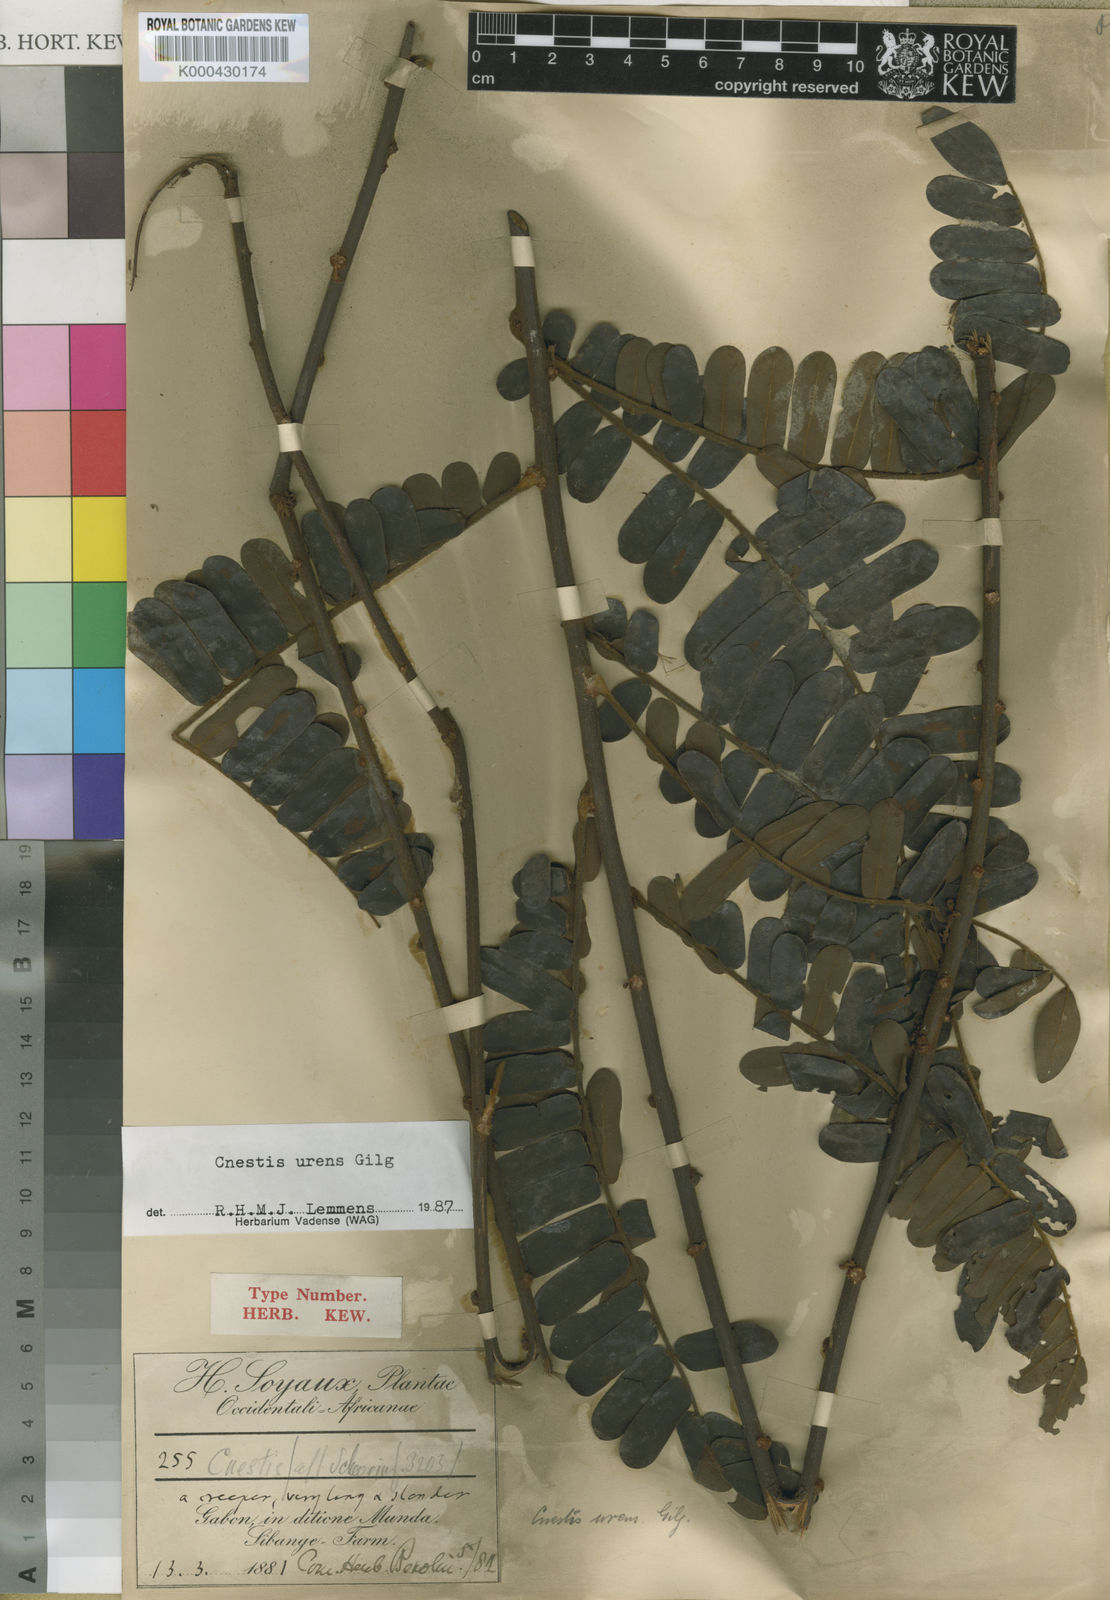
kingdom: Plantae
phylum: Tracheophyta
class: Magnoliopsida
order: Oxalidales
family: Connaraceae
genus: Cnestis
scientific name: Cnestis urens
